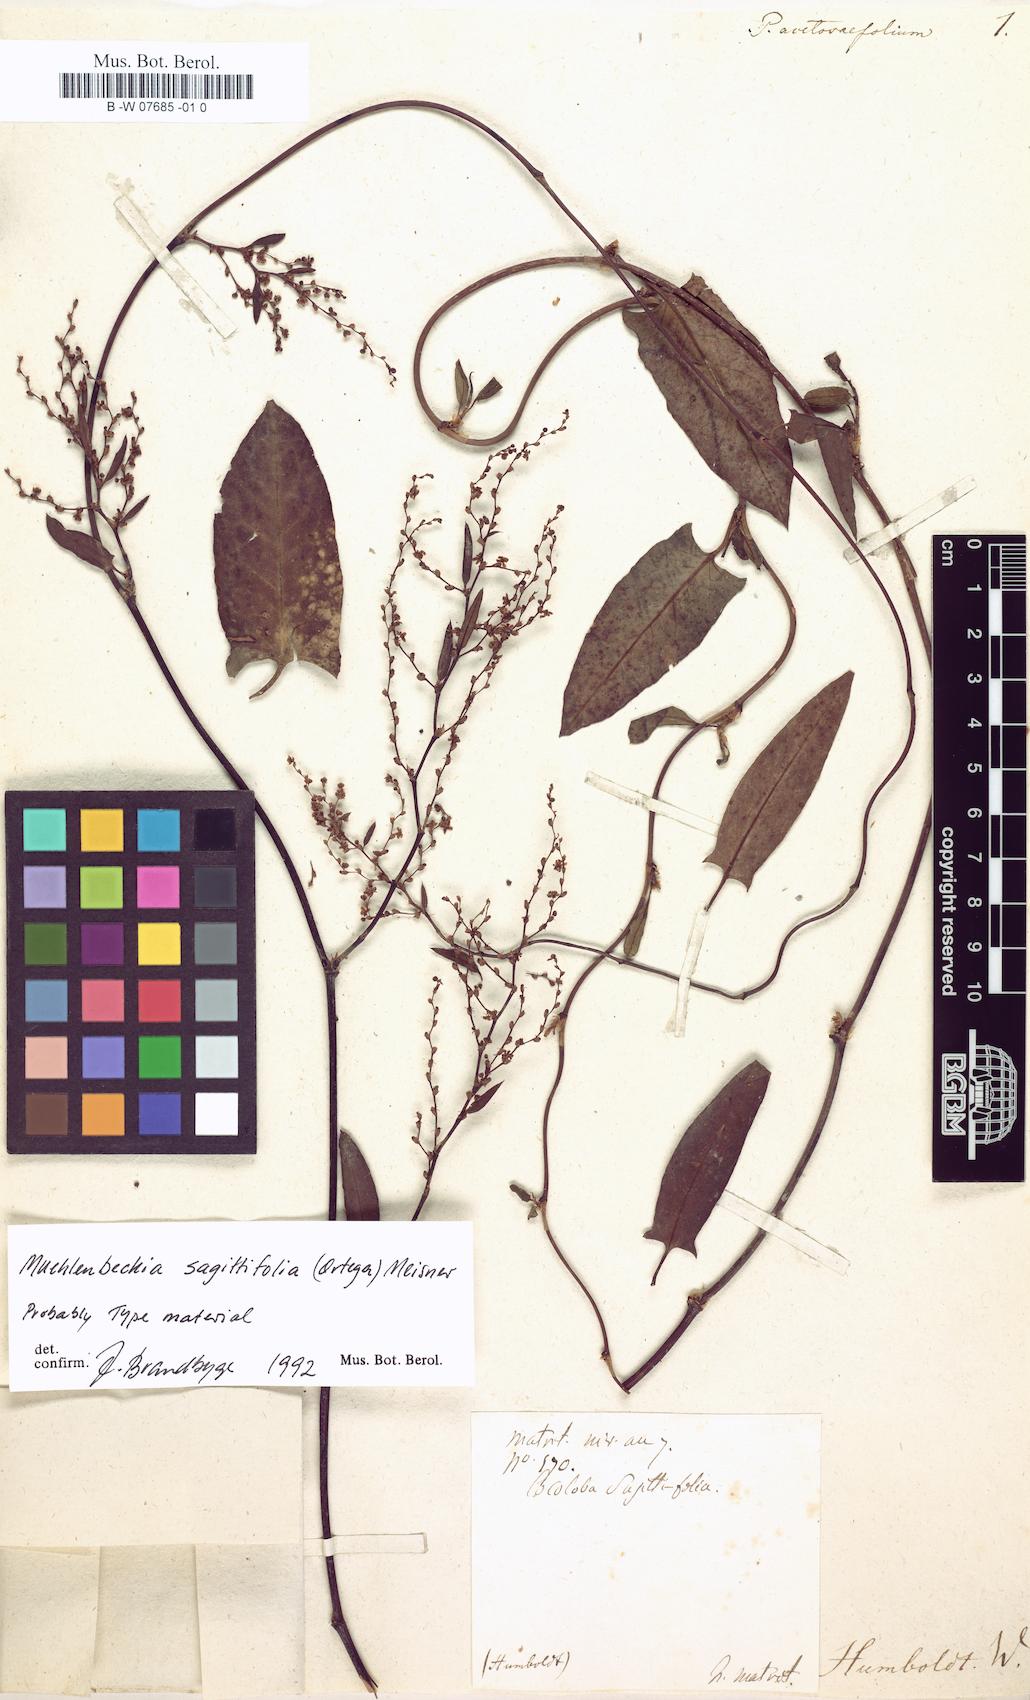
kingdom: Plantae
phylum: Tracheophyta
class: Magnoliopsida
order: Caryophyllales
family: Polygonaceae
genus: Muehlenbeckia
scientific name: Muehlenbeckia sagittifolia
